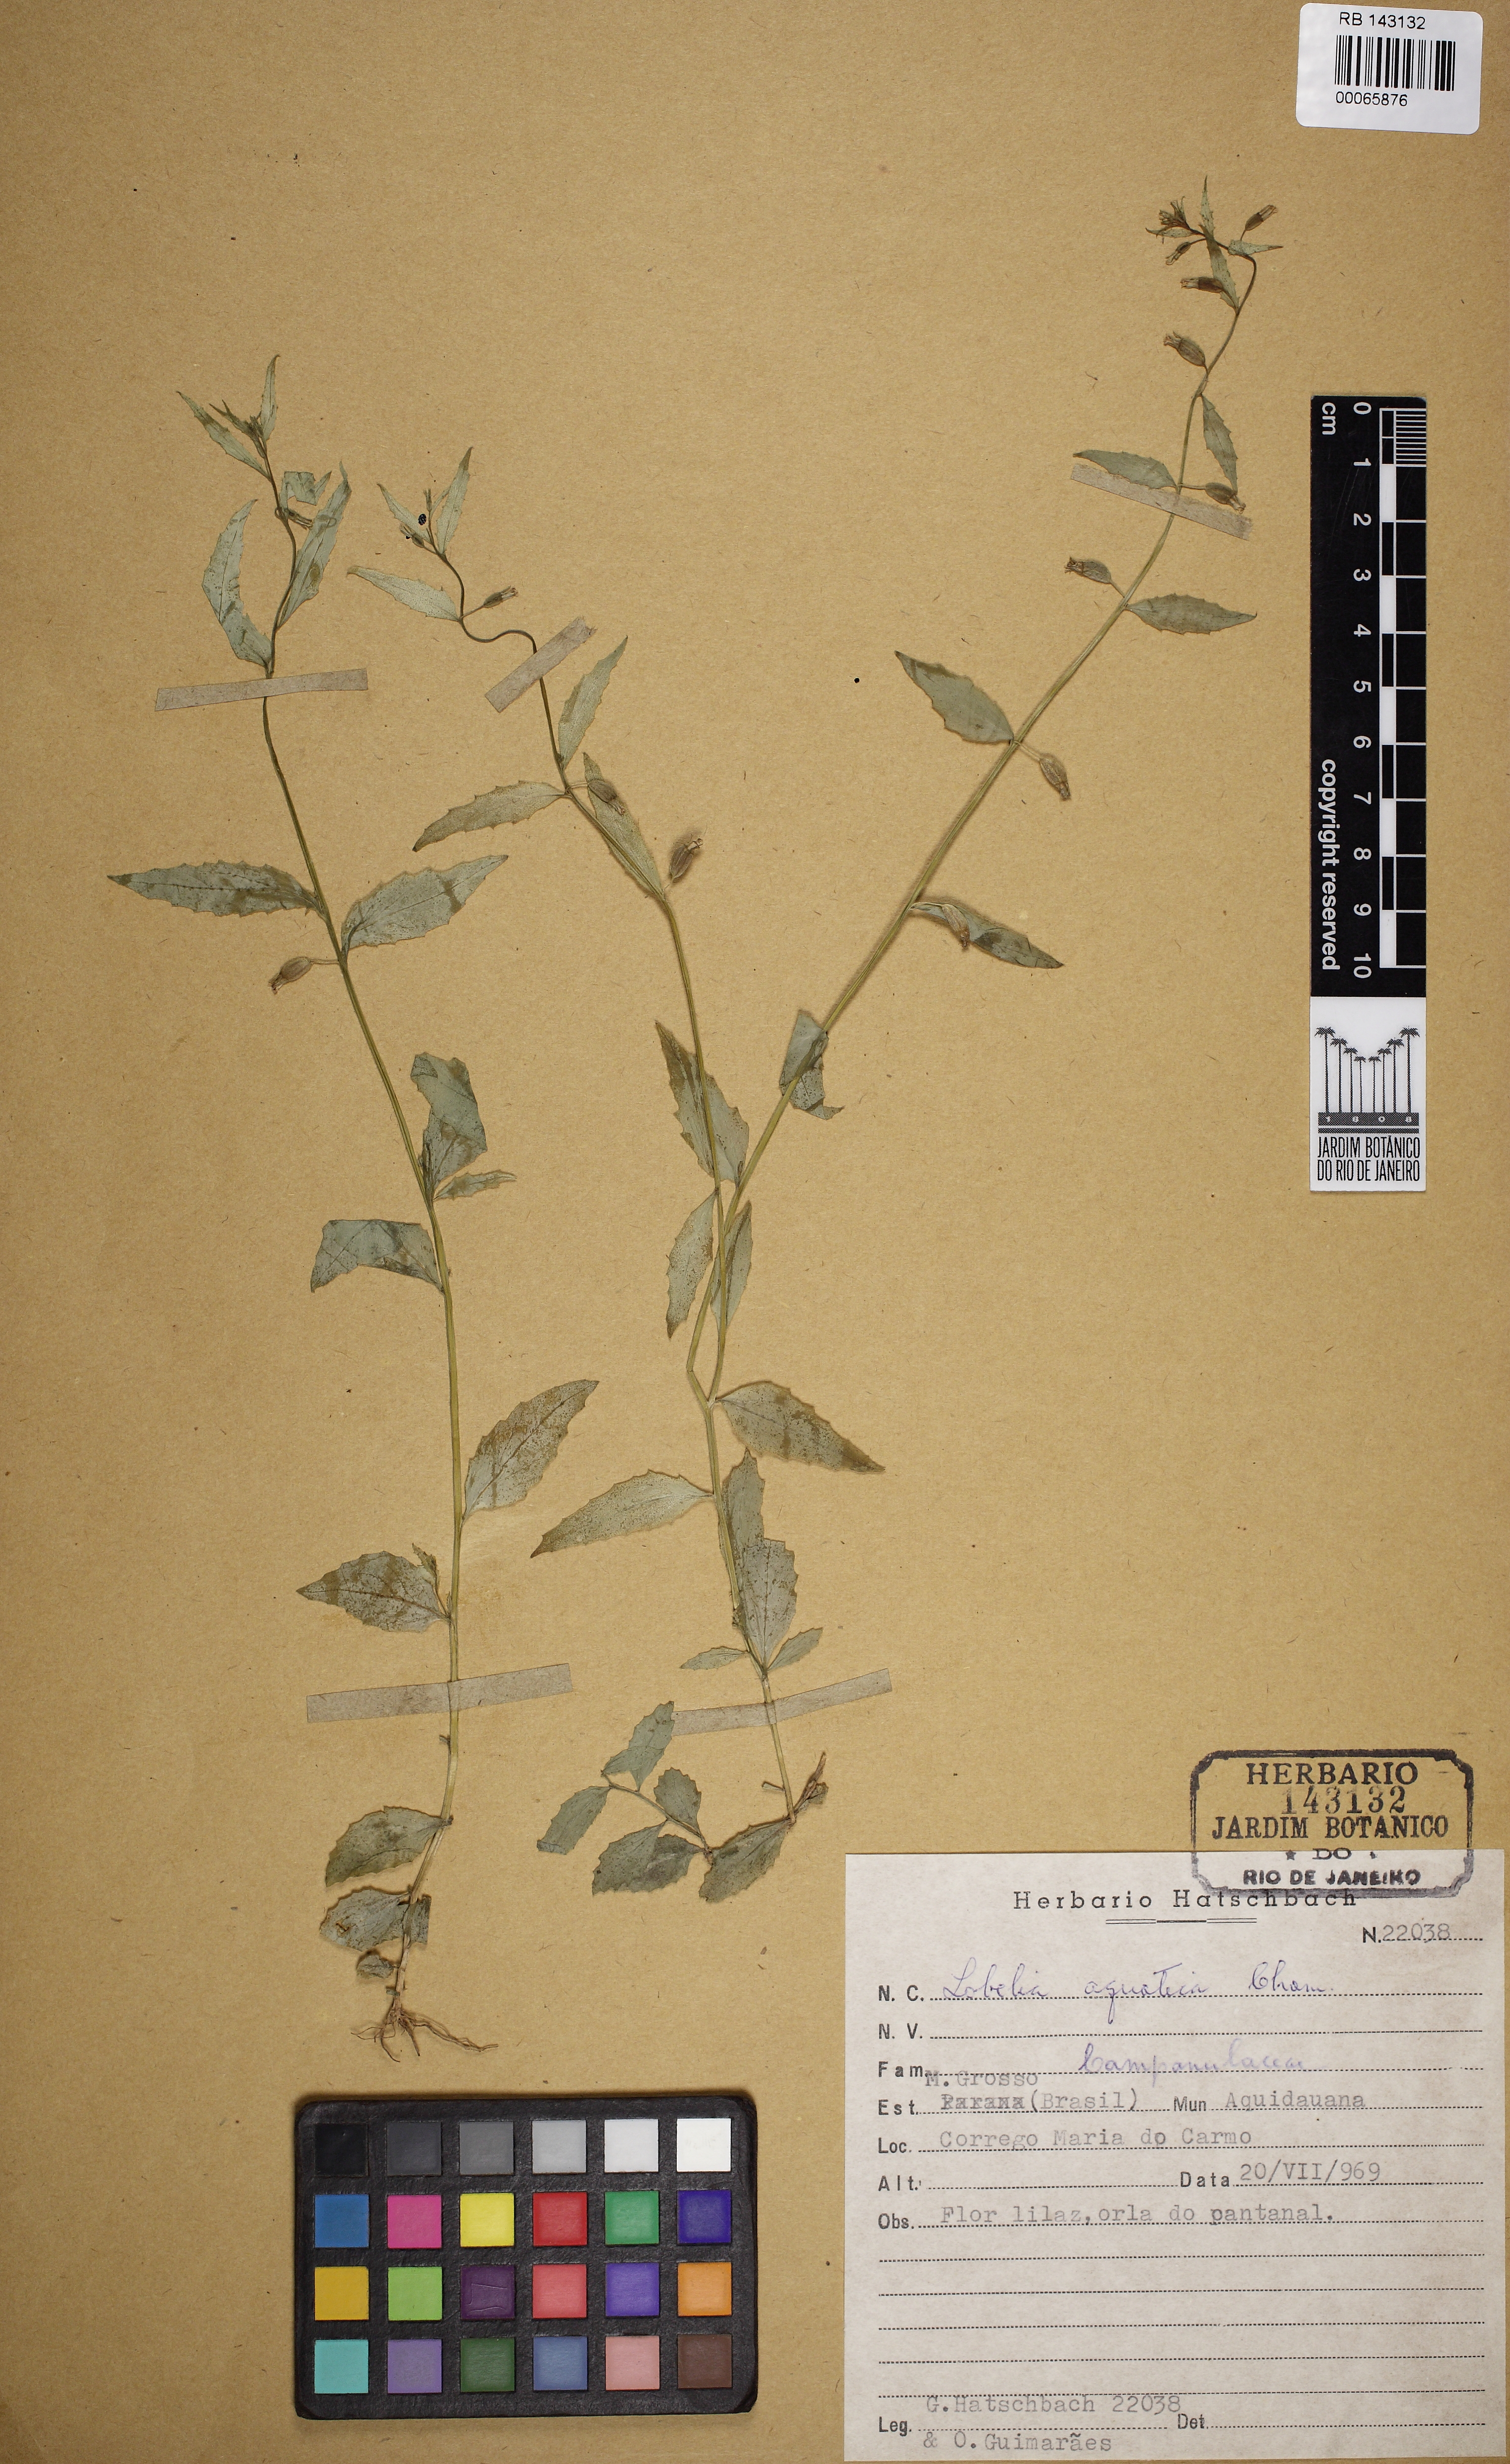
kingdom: Plantae
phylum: Tracheophyta
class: Magnoliopsida
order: Asterales
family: Campanulaceae
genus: Lobelia
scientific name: Lobelia anceps
